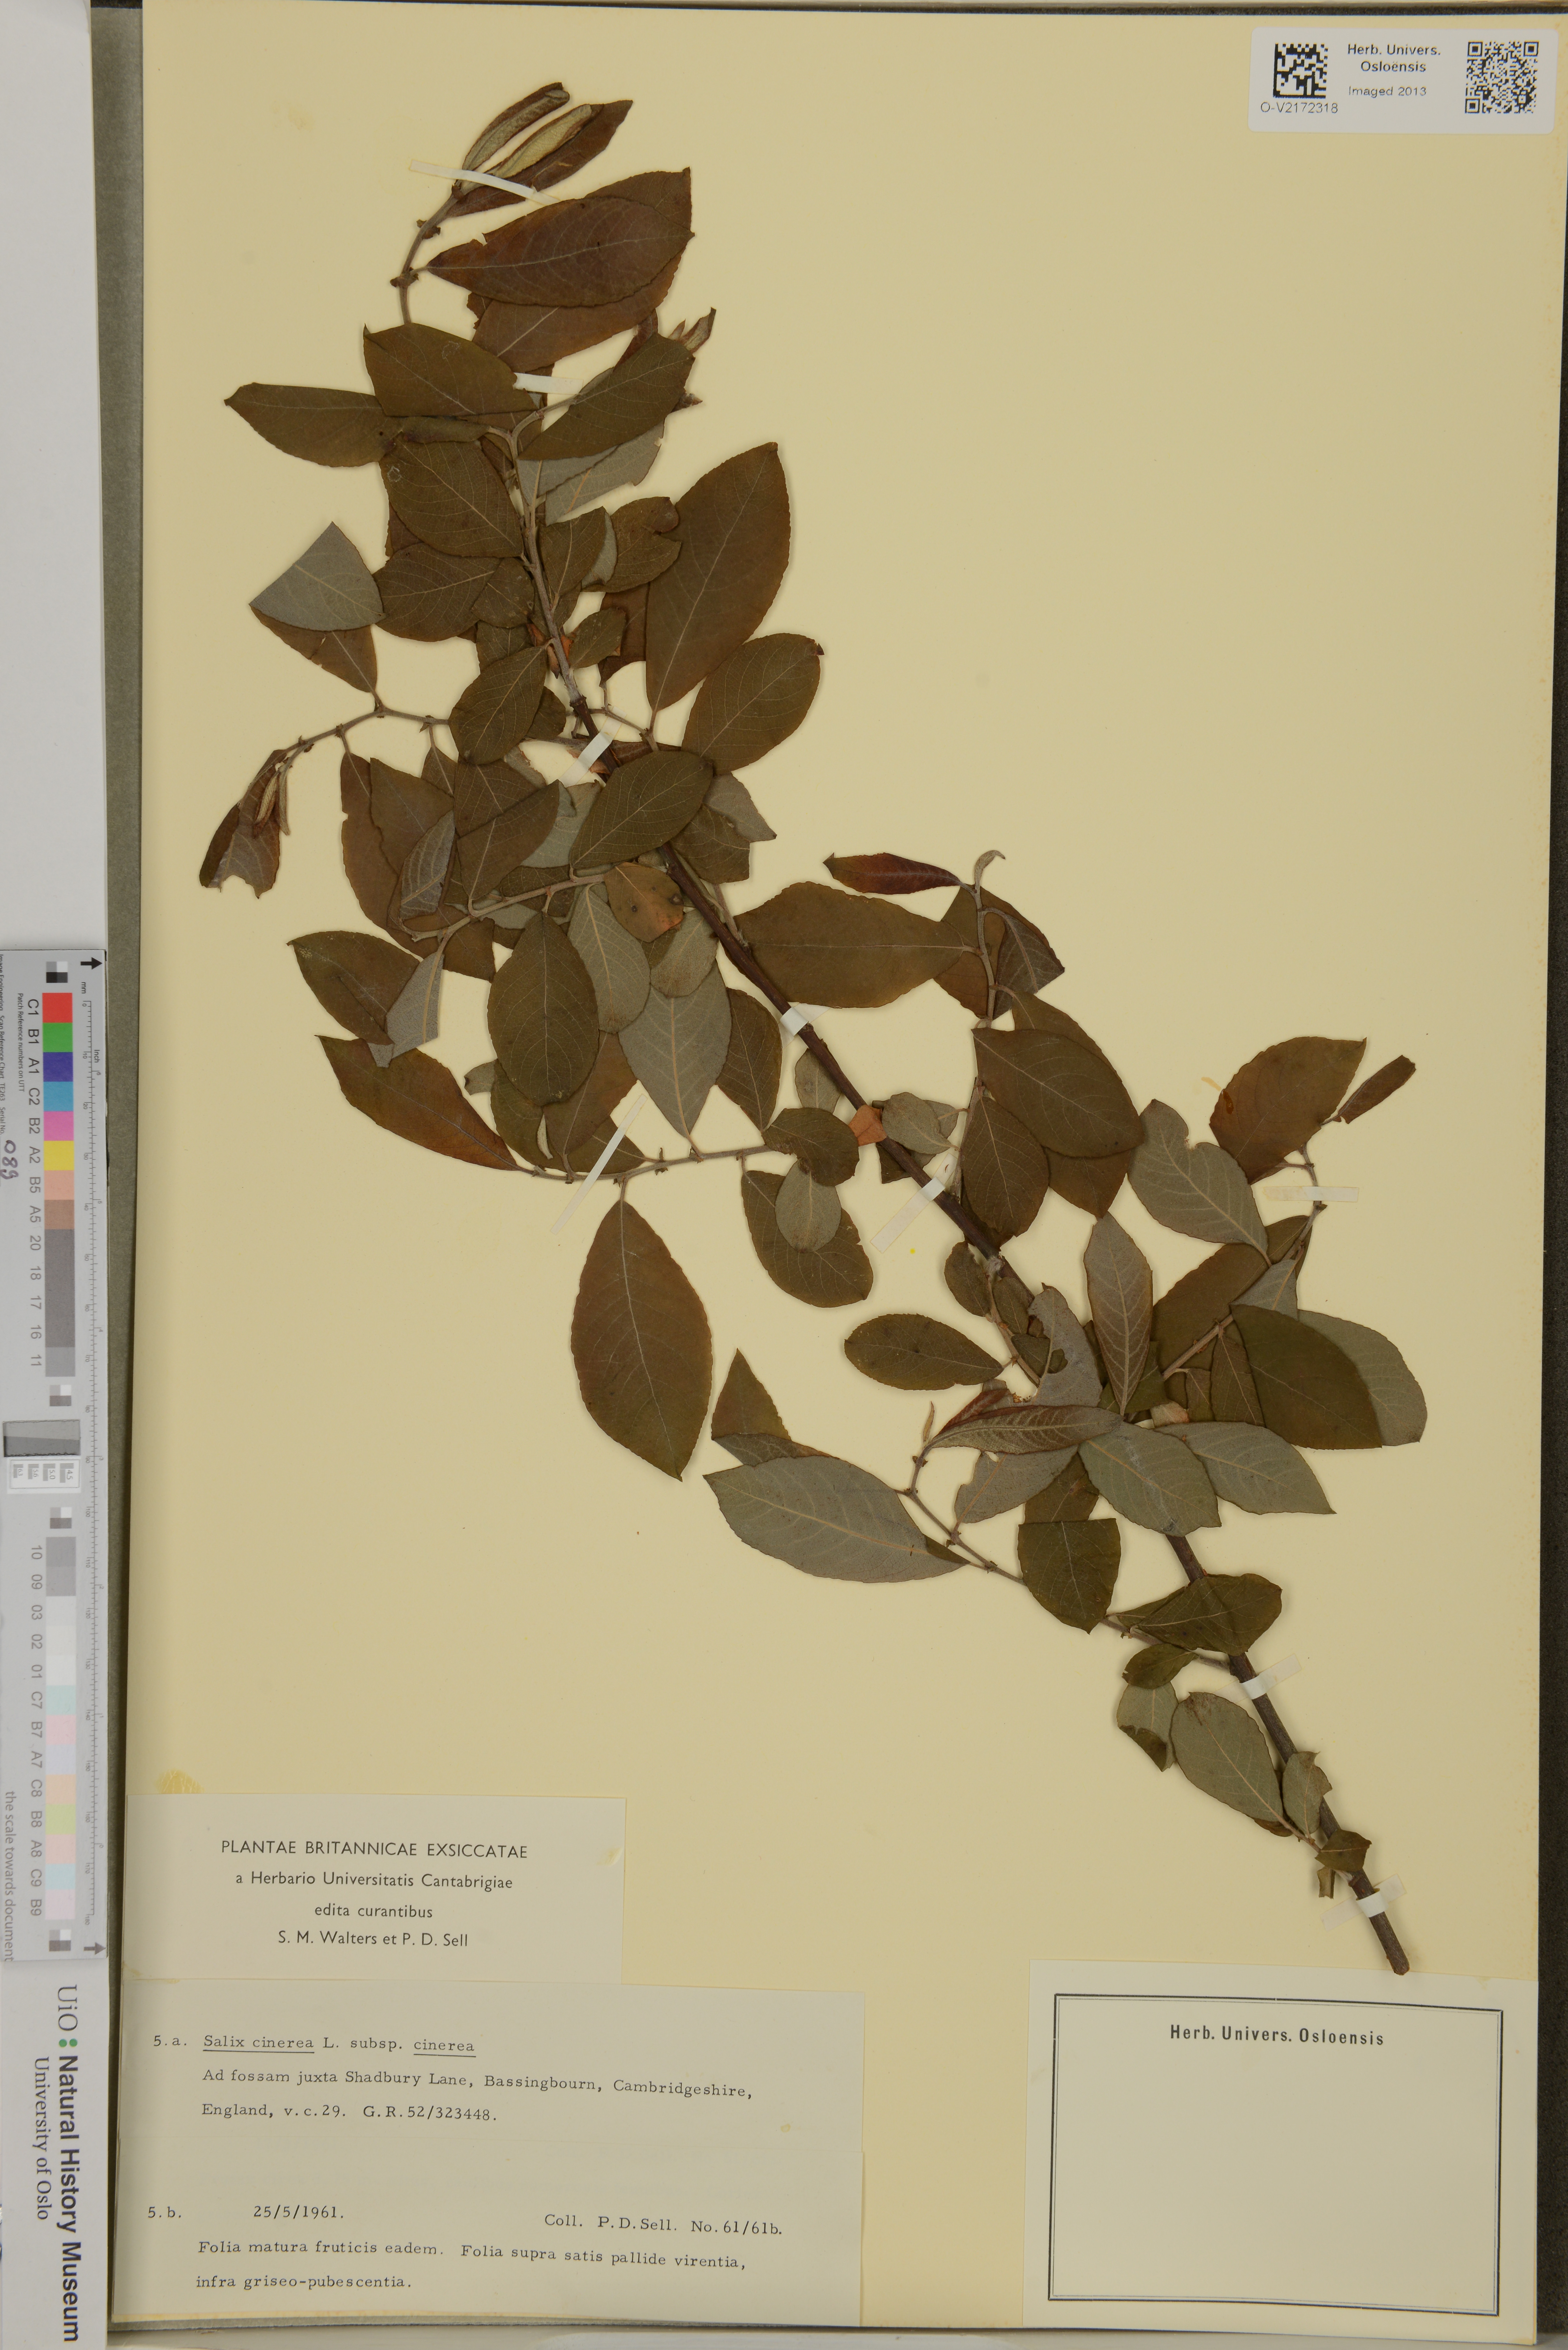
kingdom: Plantae
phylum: Tracheophyta
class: Magnoliopsida
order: Malpighiales
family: Salicaceae
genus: Salix
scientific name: Salix cinerea
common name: Common sallow
